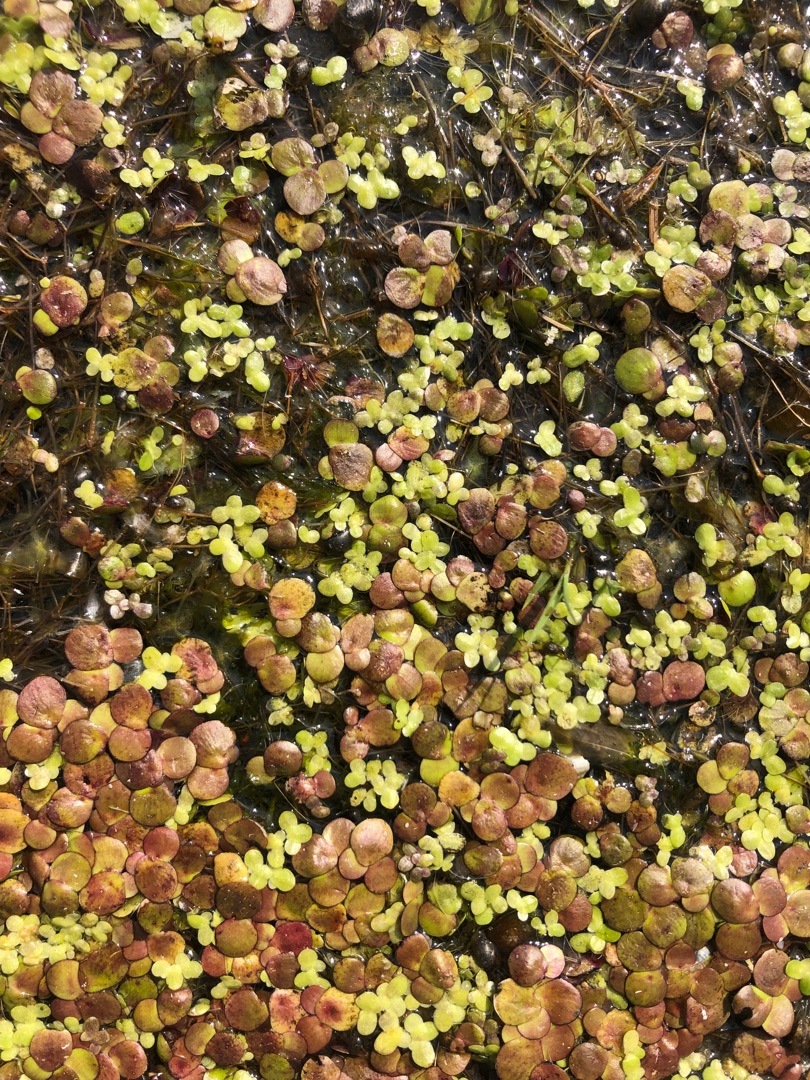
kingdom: Plantae
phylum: Tracheophyta
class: Liliopsida
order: Alismatales
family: Araceae
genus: Spirodela
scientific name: Spirodela polyrhiza
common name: Stor andemad
